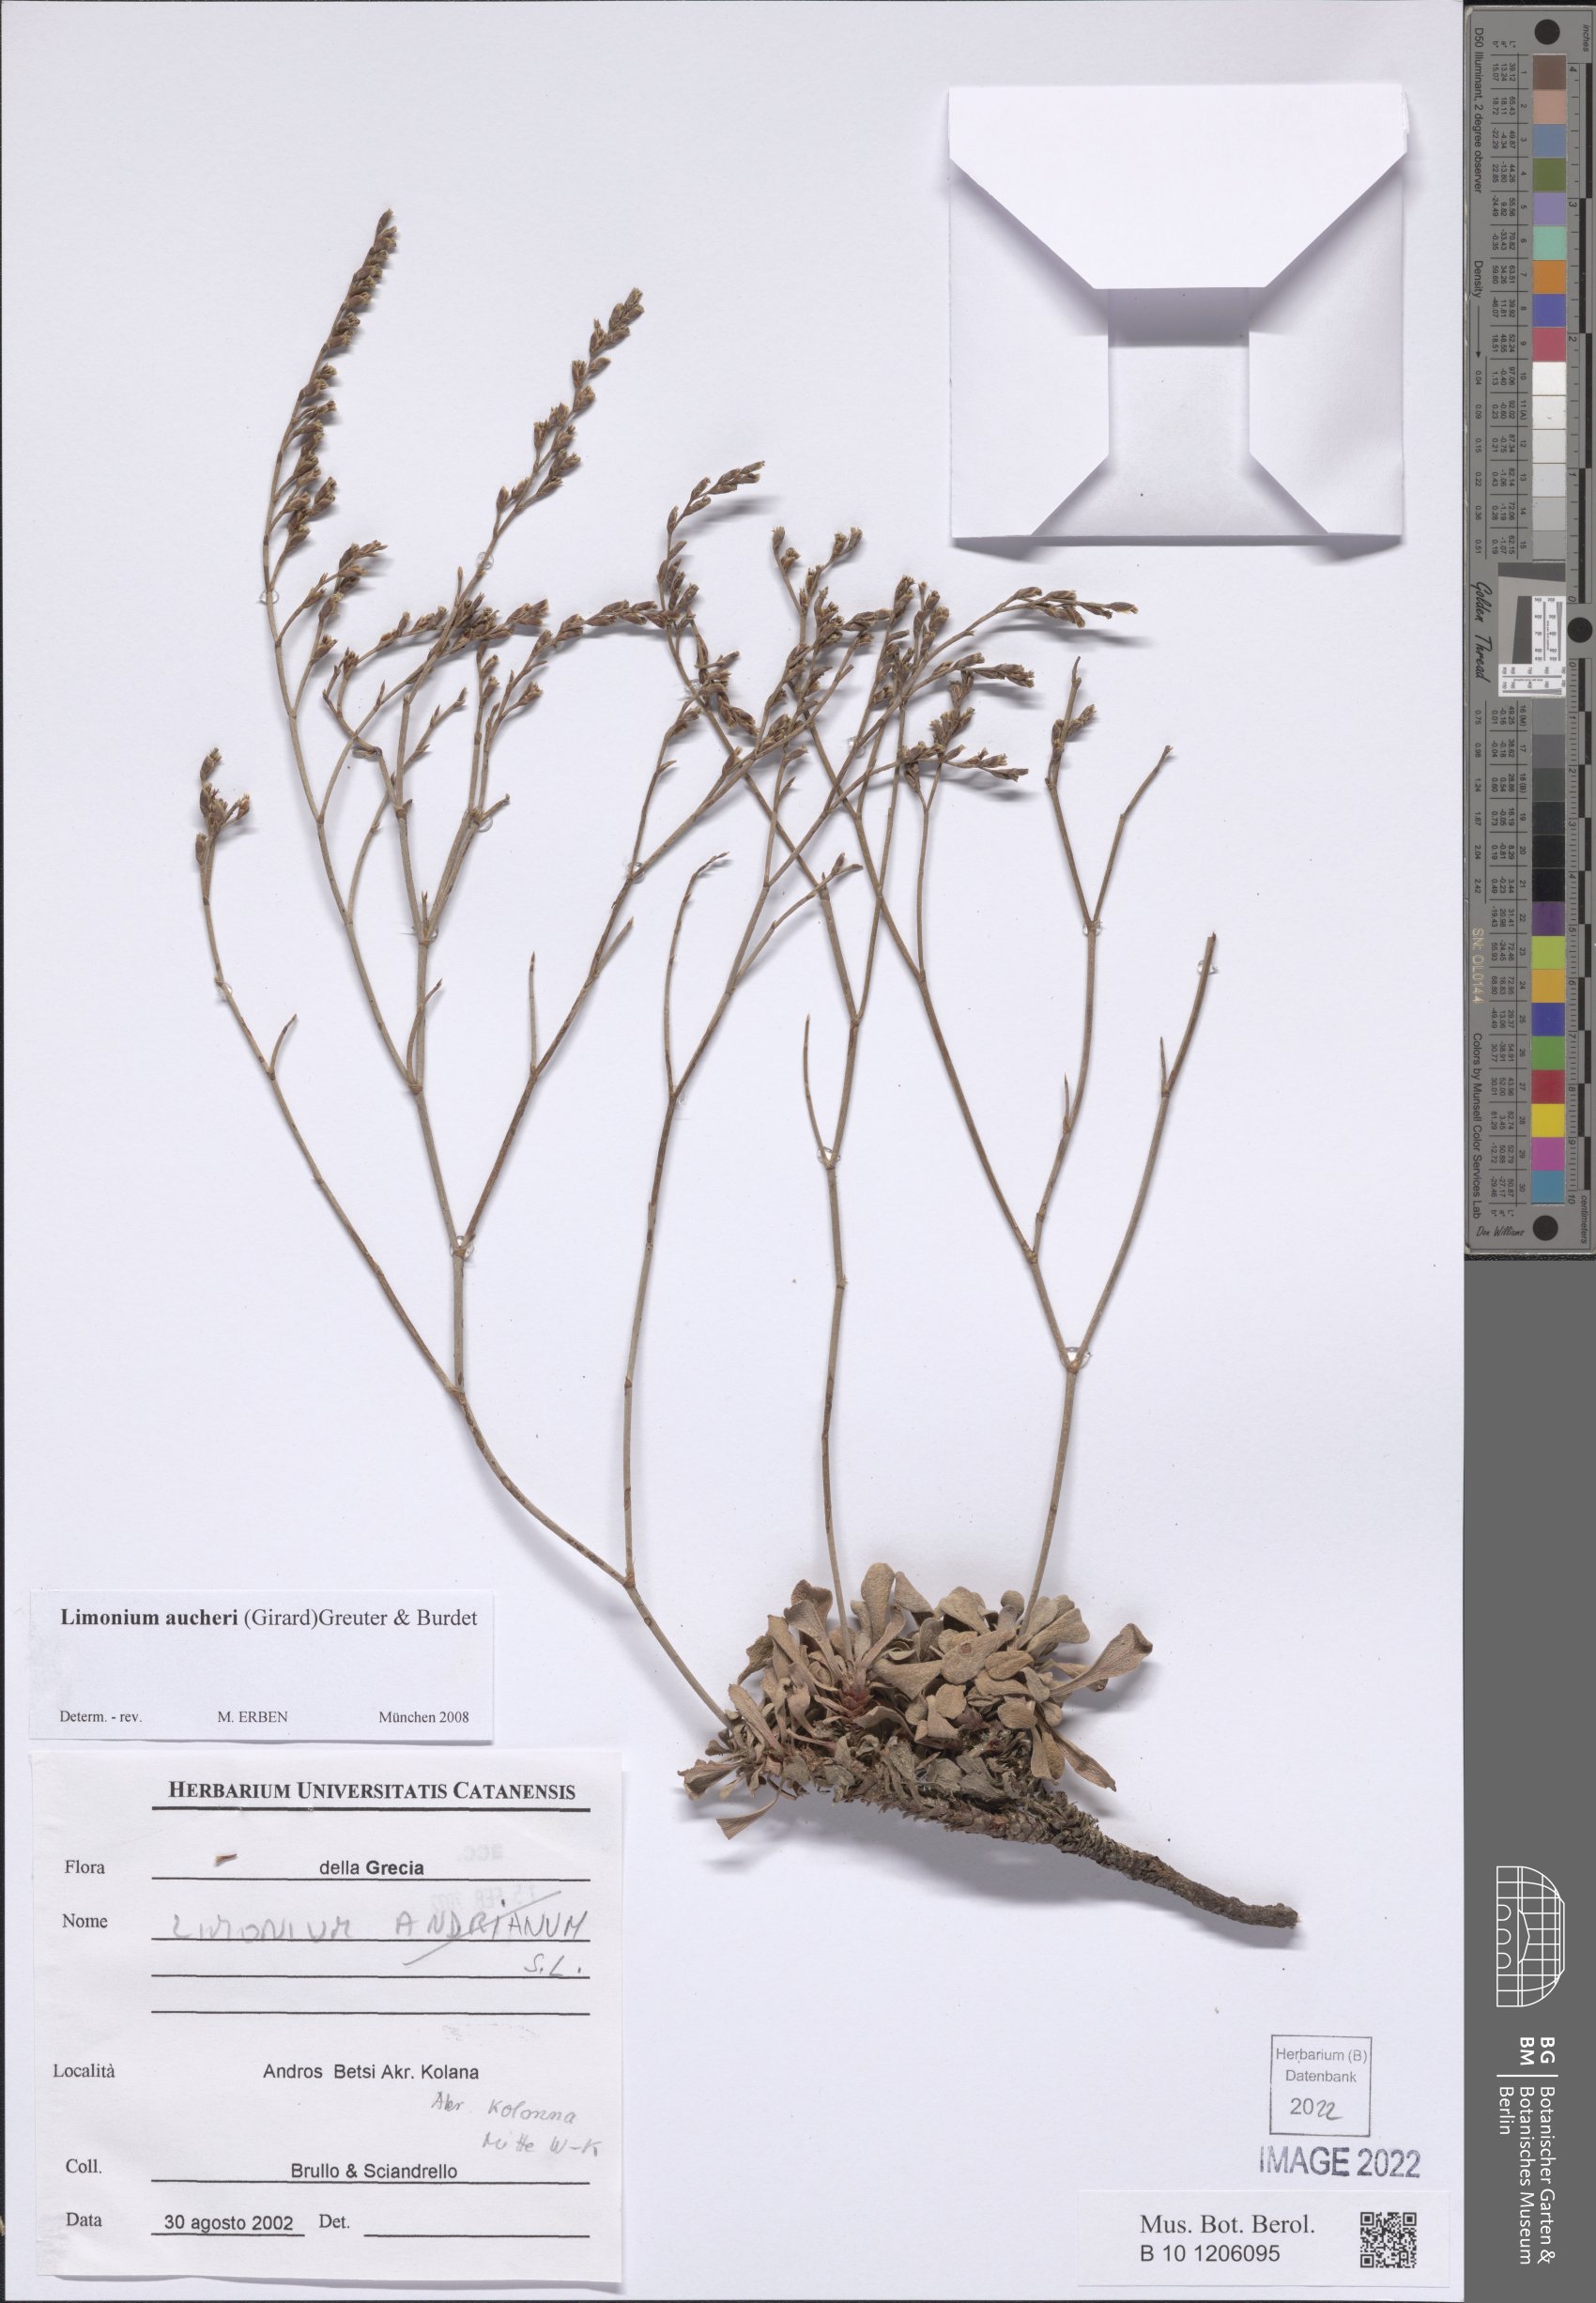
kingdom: Plantae
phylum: Tracheophyta
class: Magnoliopsida
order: Caryophyllales
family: Plumbaginaceae
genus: Limonium
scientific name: Limonium aucheri
